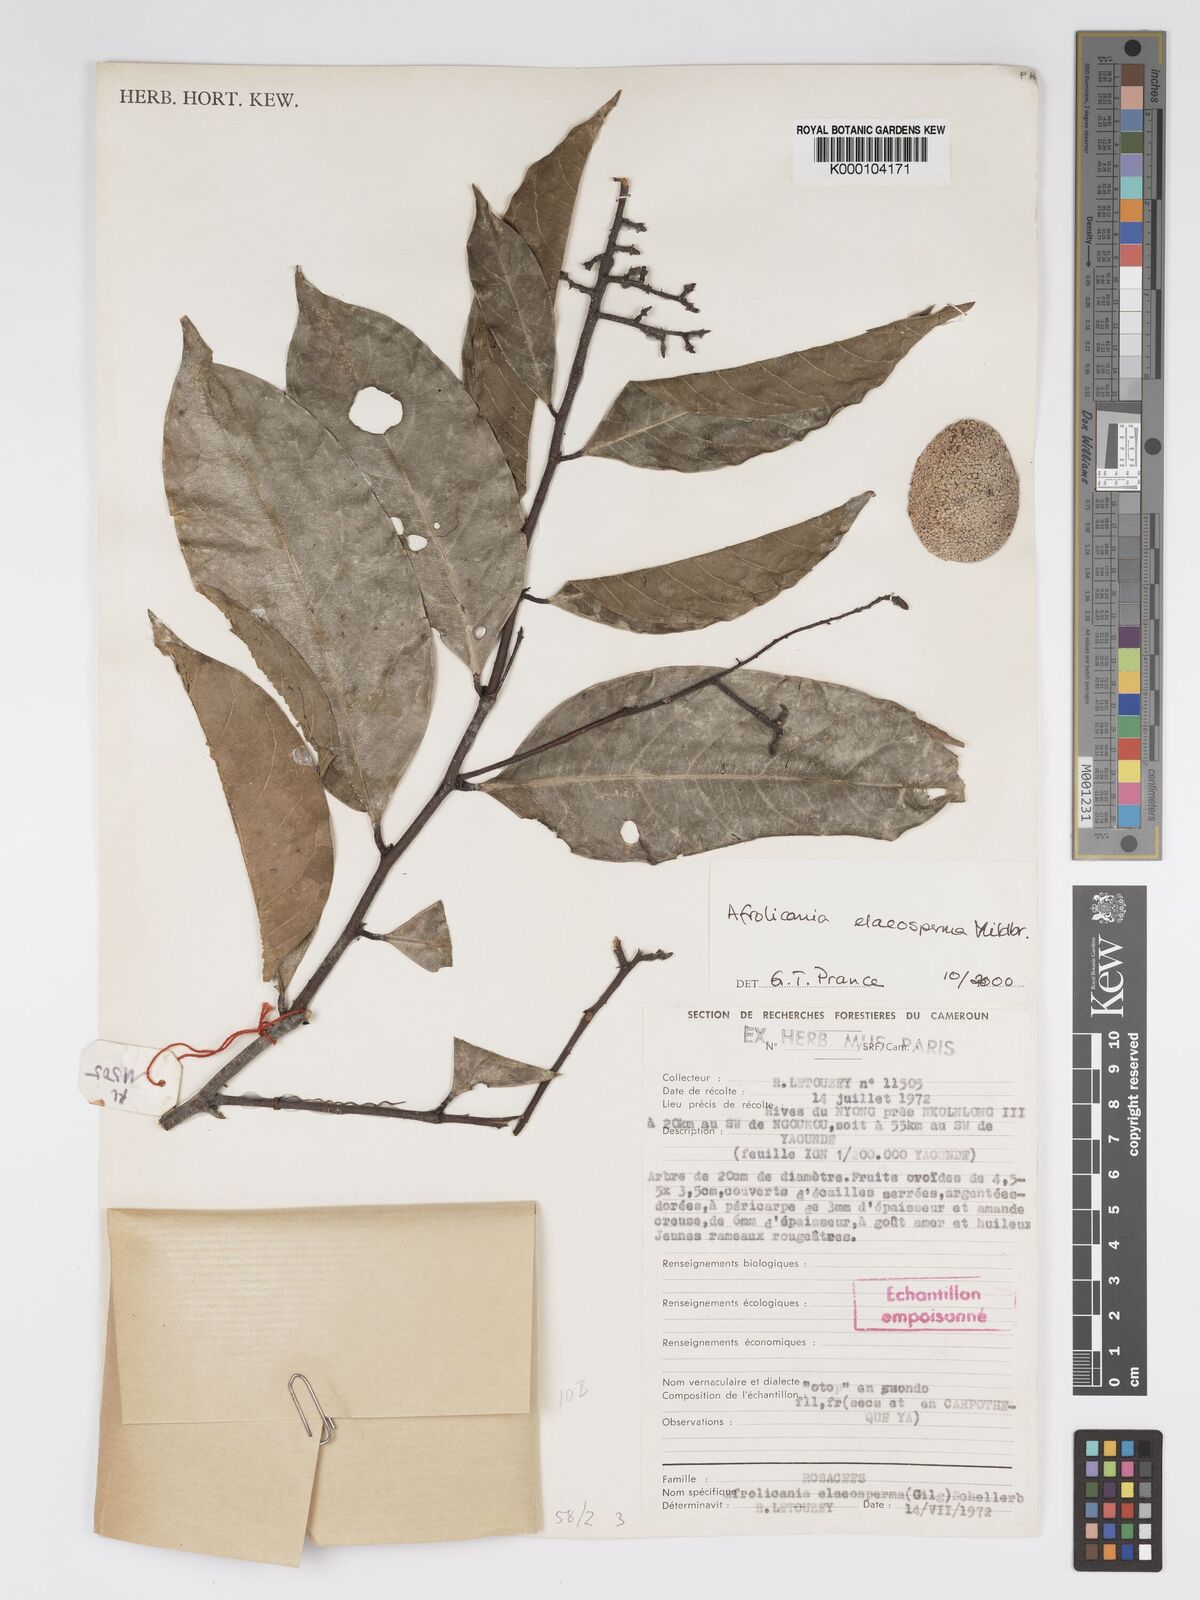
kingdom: Plantae
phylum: Tracheophyta
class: Magnoliopsida
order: Malpighiales
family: Chrysobalanaceae
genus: Afrolicania
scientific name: Afrolicania elaeosperma
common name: Nikko
